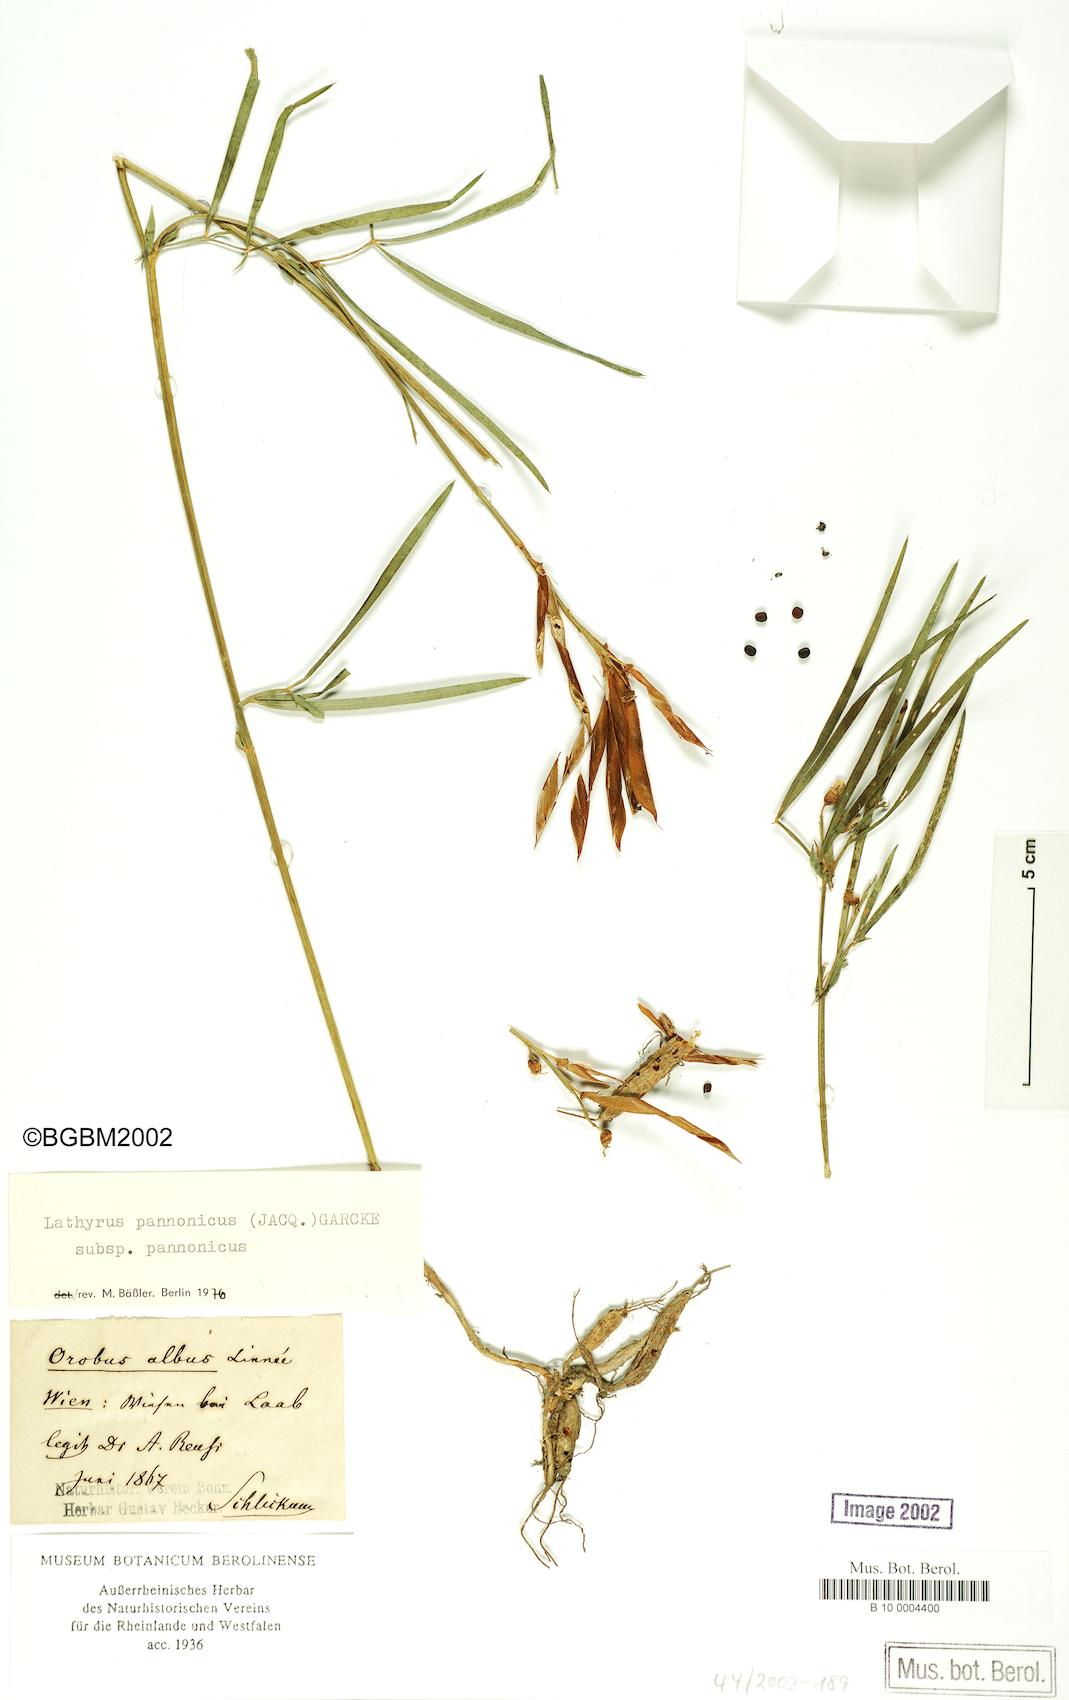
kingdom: Plantae
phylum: Tracheophyta
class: Magnoliopsida
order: Fabales
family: Fabaceae
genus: Lathyrus
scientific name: Lathyrus pannonicus
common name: Pea
